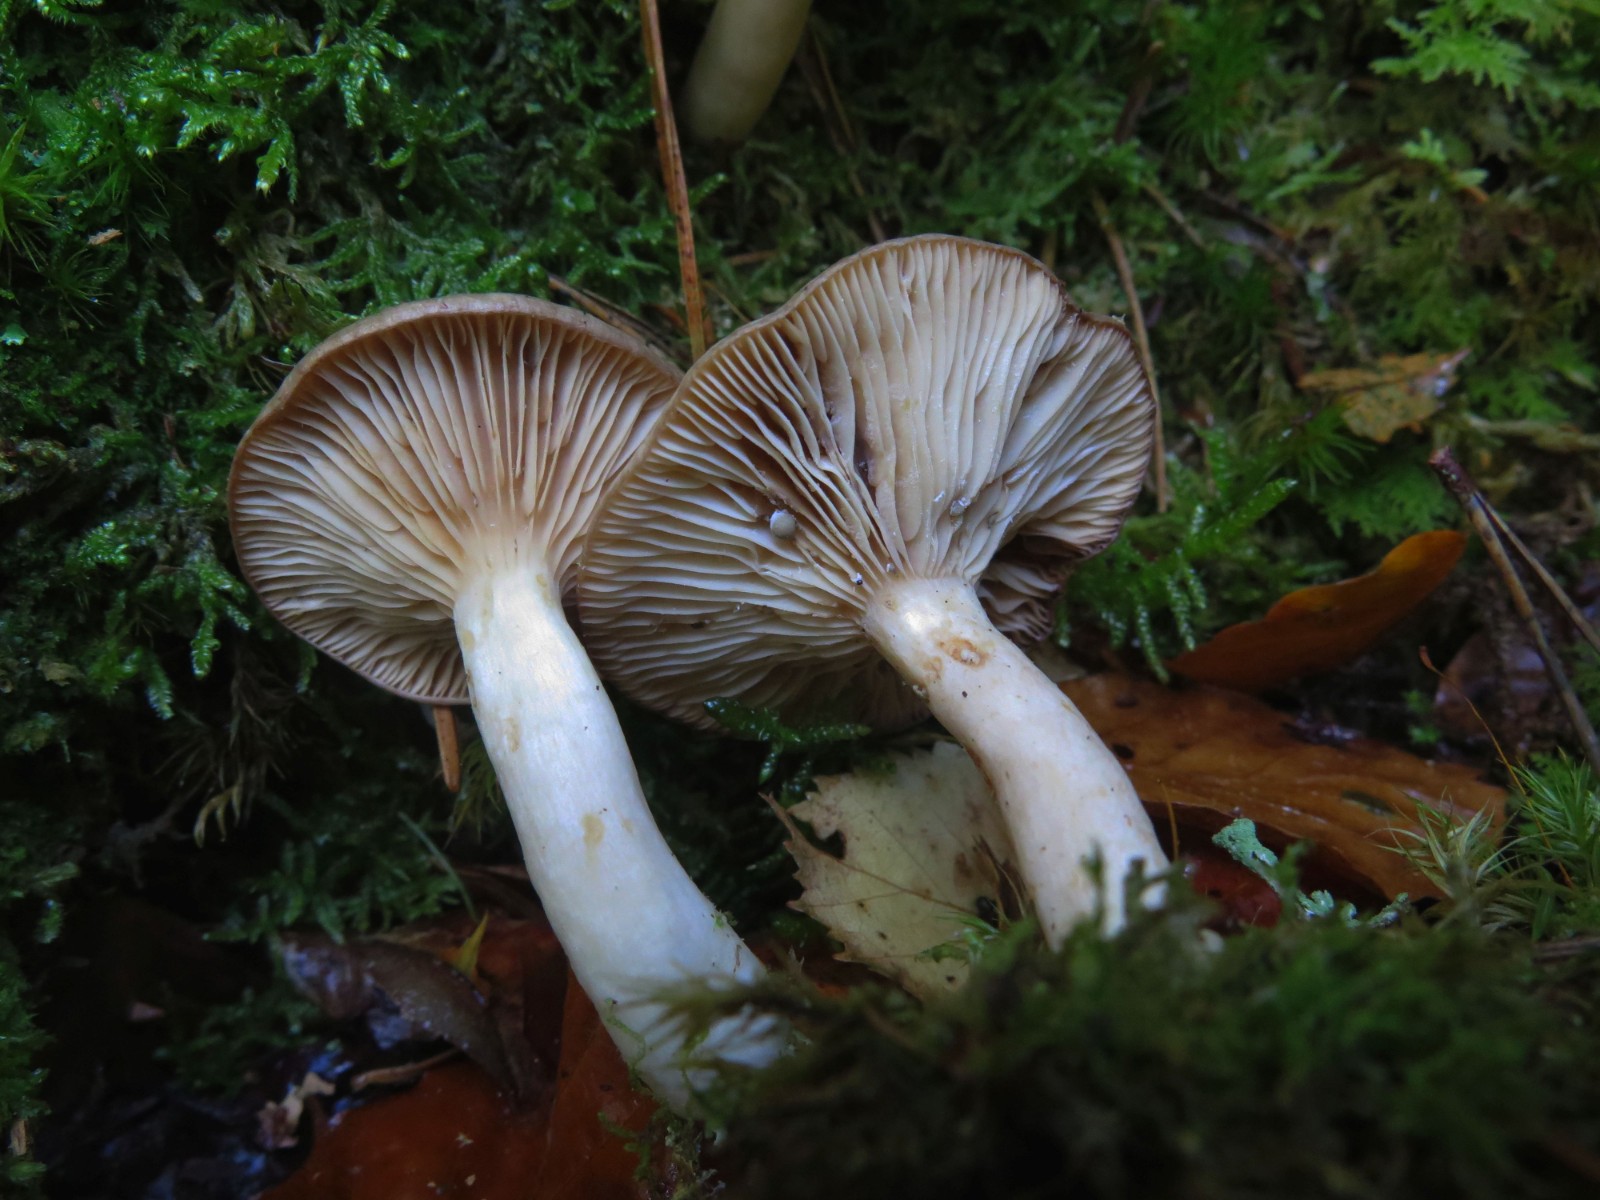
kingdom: Fungi
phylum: Basidiomycota
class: Agaricomycetes
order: Russulales
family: Russulaceae
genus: Lactarius
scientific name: Lactarius vietus
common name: violetgrå mælkehat
